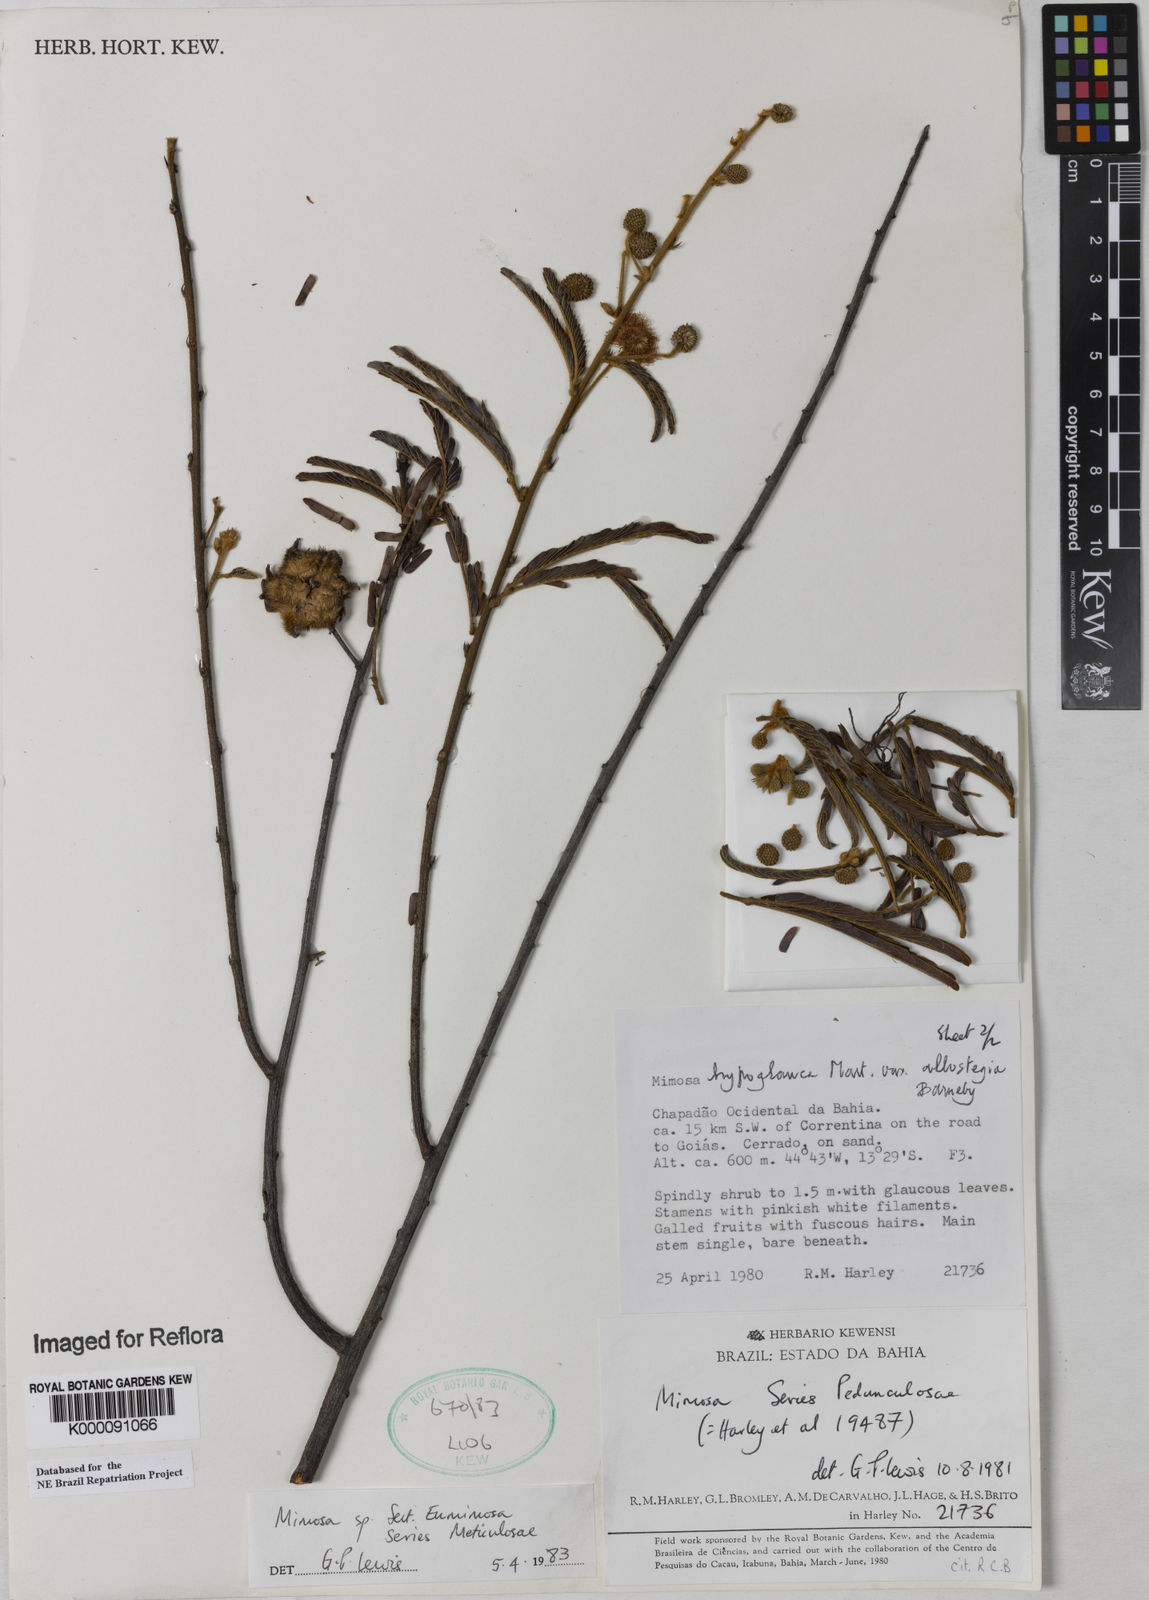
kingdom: Plantae
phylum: Tracheophyta
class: Magnoliopsida
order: Fabales
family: Fabaceae
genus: Mimosa
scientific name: Mimosa hypoglauca
